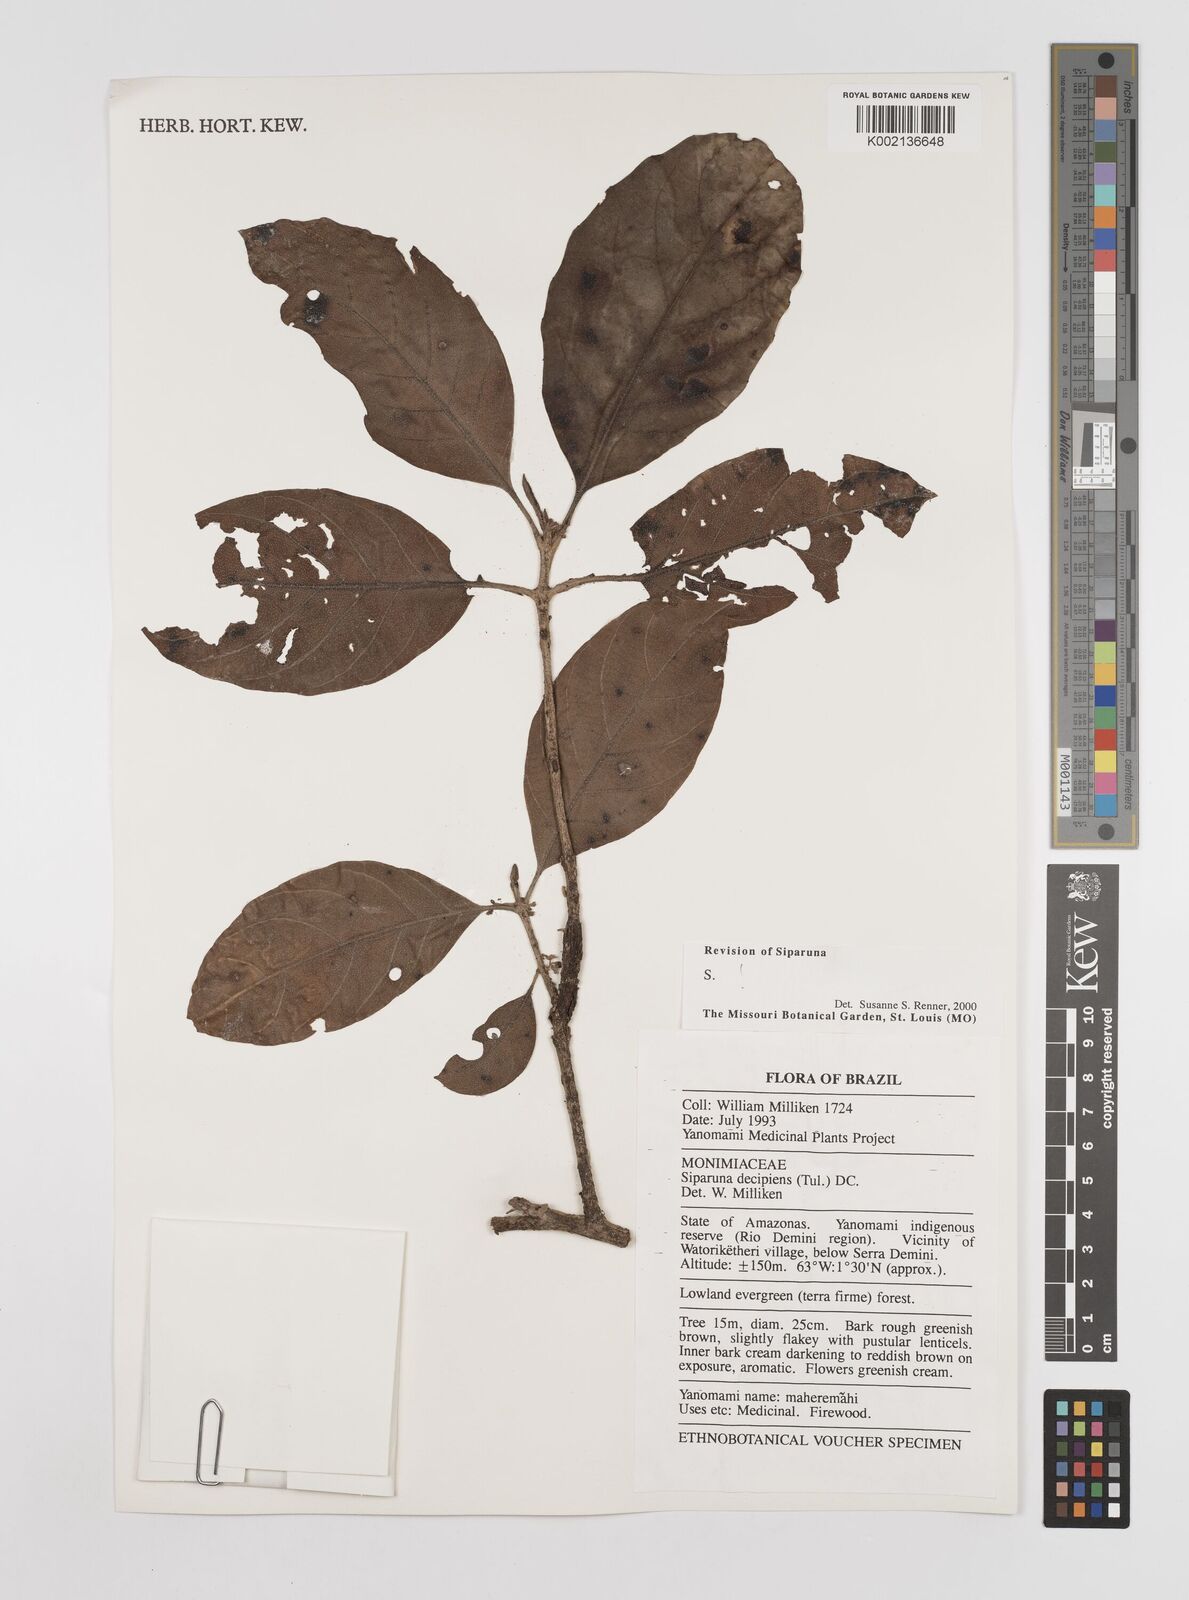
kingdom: Plantae
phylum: Tracheophyta
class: Magnoliopsida
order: Laurales
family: Siparunaceae
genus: Siparuna
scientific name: Siparuna decipiens
